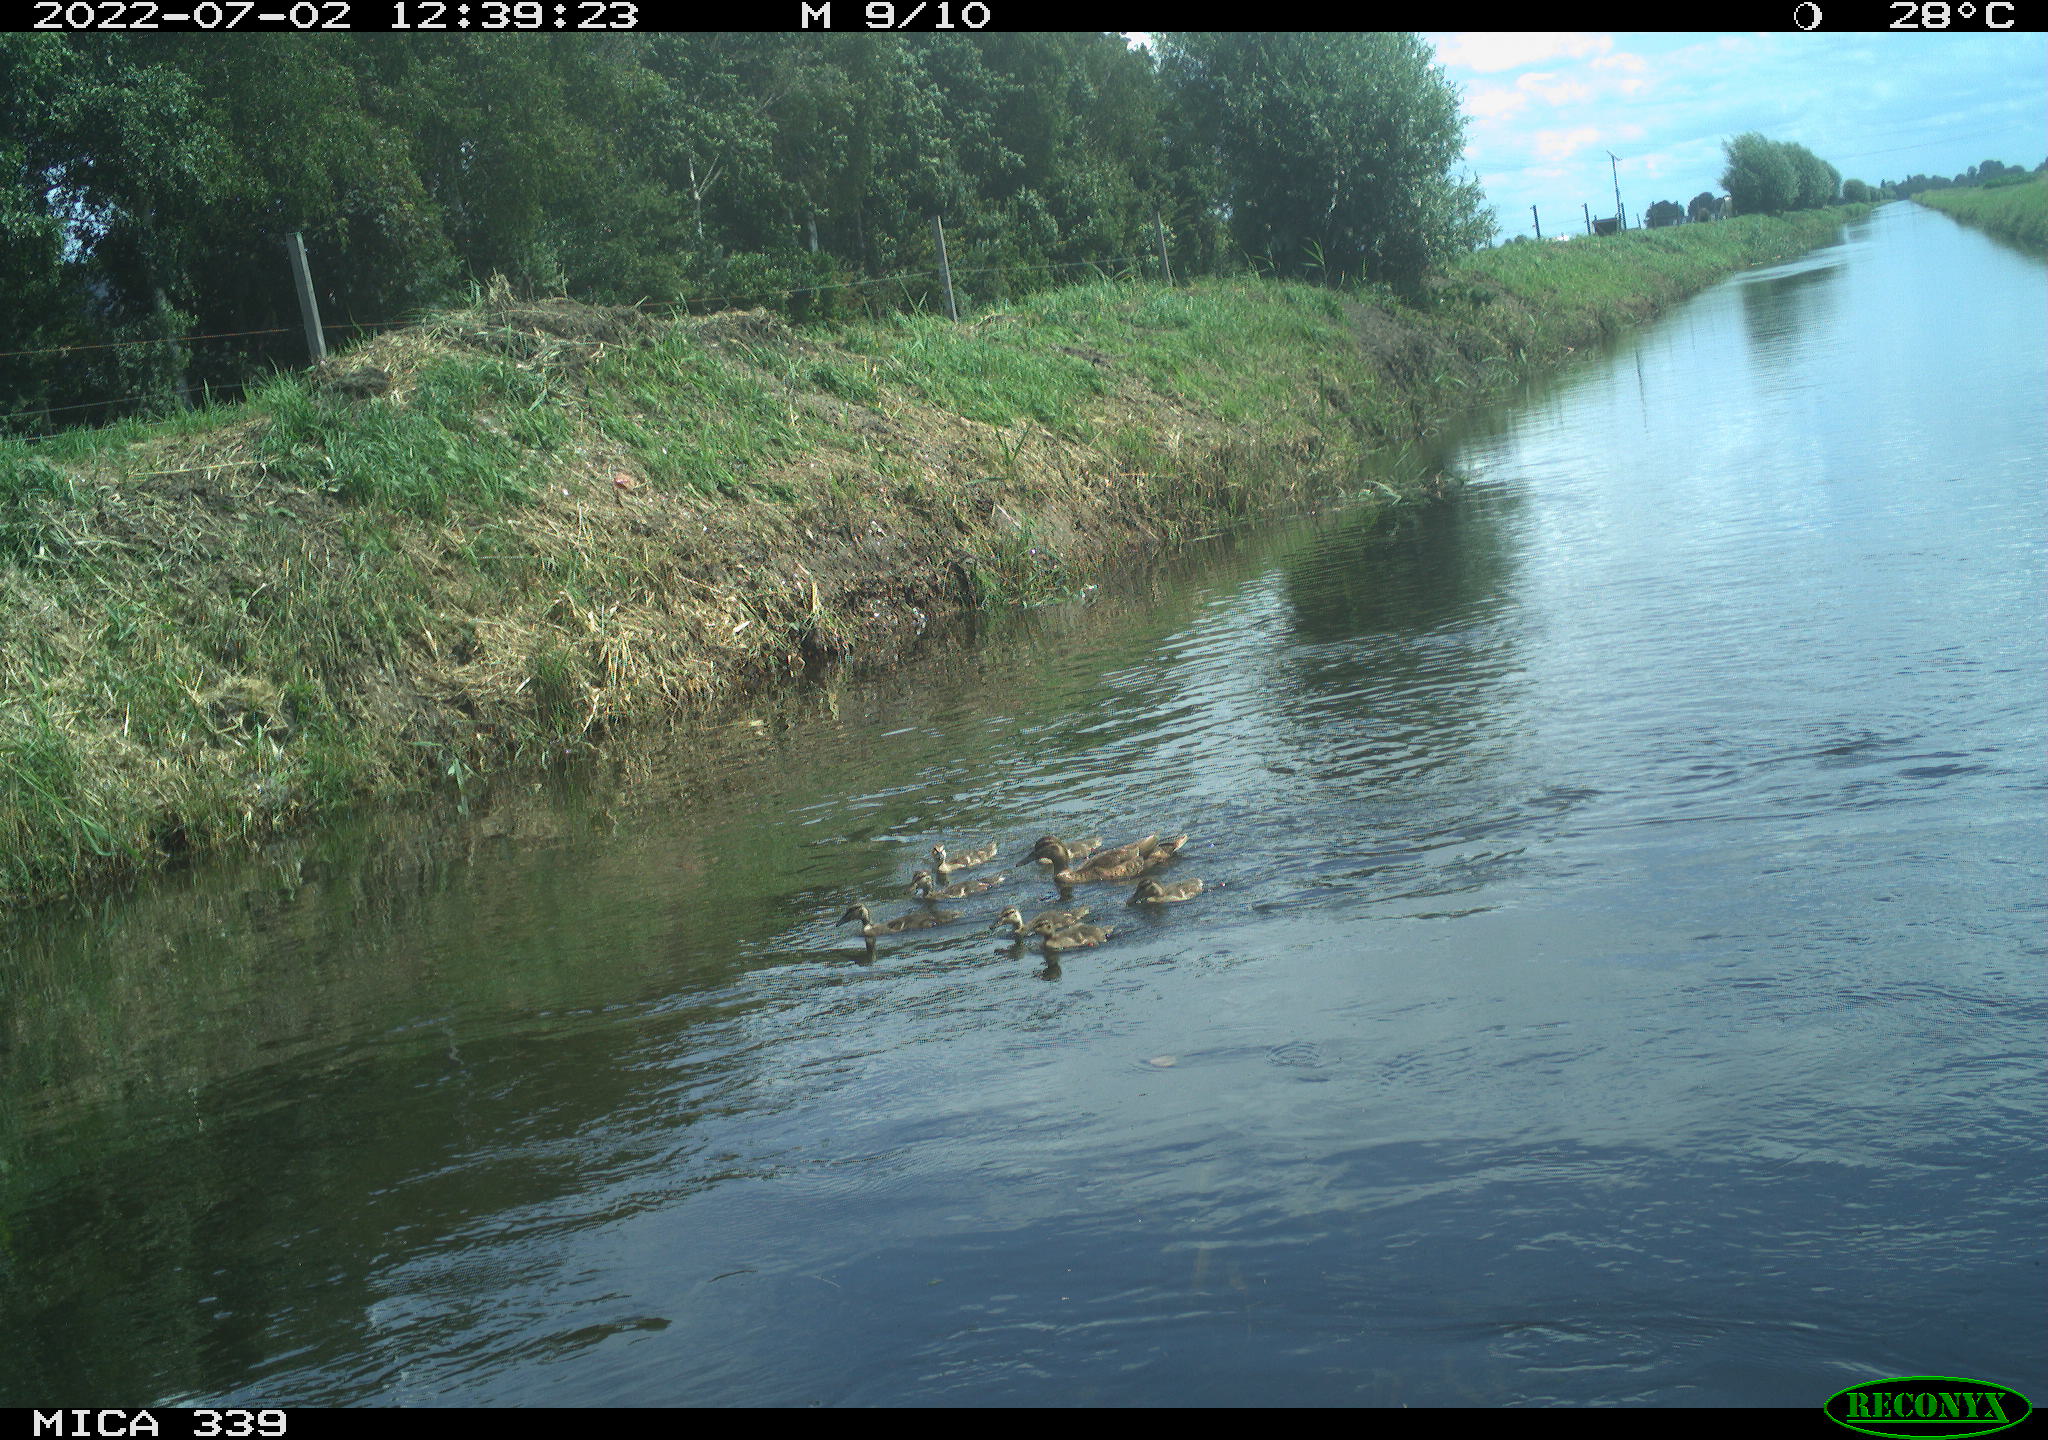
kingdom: Animalia
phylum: Chordata
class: Aves
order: Anseriformes
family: Anatidae
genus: Anas
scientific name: Anas platyrhynchos
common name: Mallard
